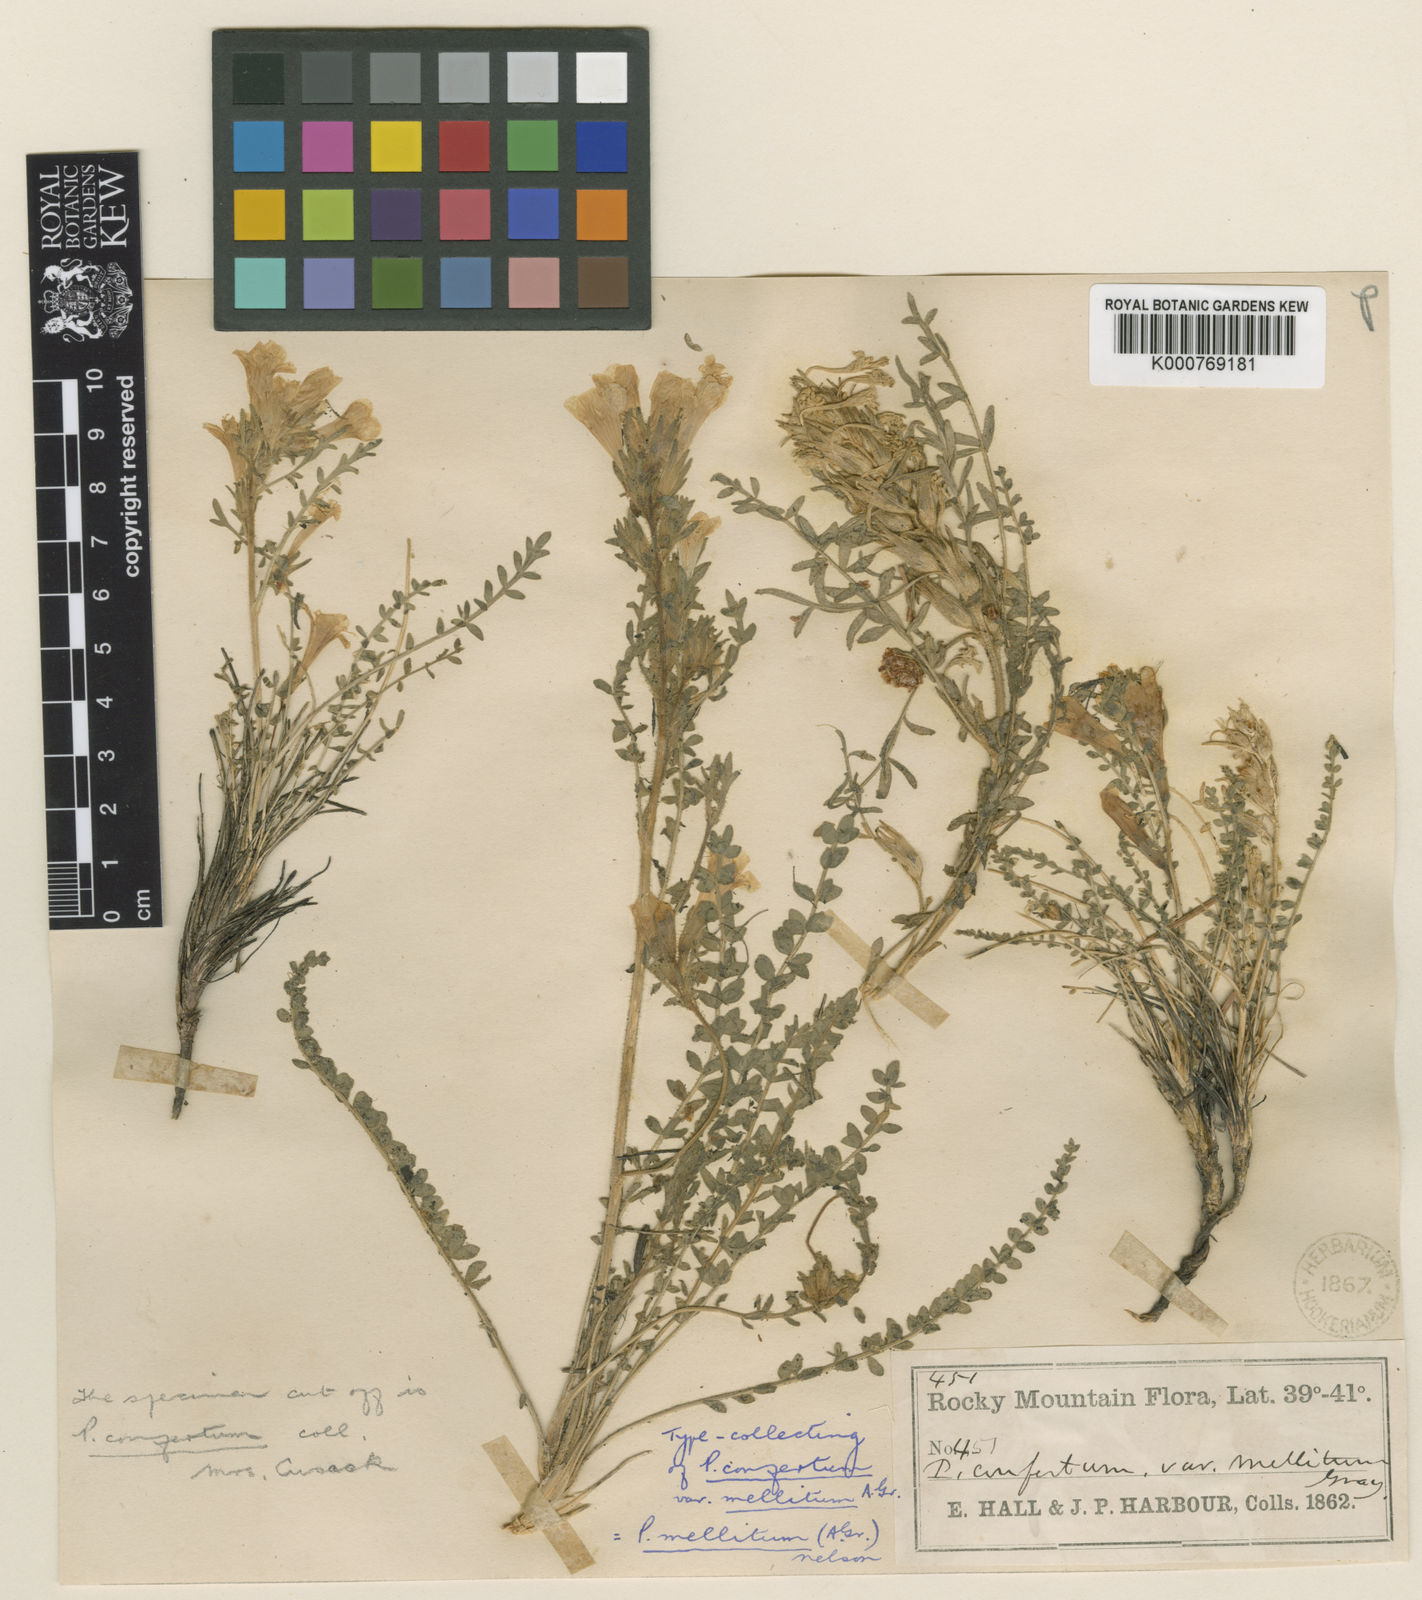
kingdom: Plantae
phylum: Tracheophyta
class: Magnoliopsida
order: Ericales
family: Polemoniaceae
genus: Polemonium
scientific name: Polemonium
